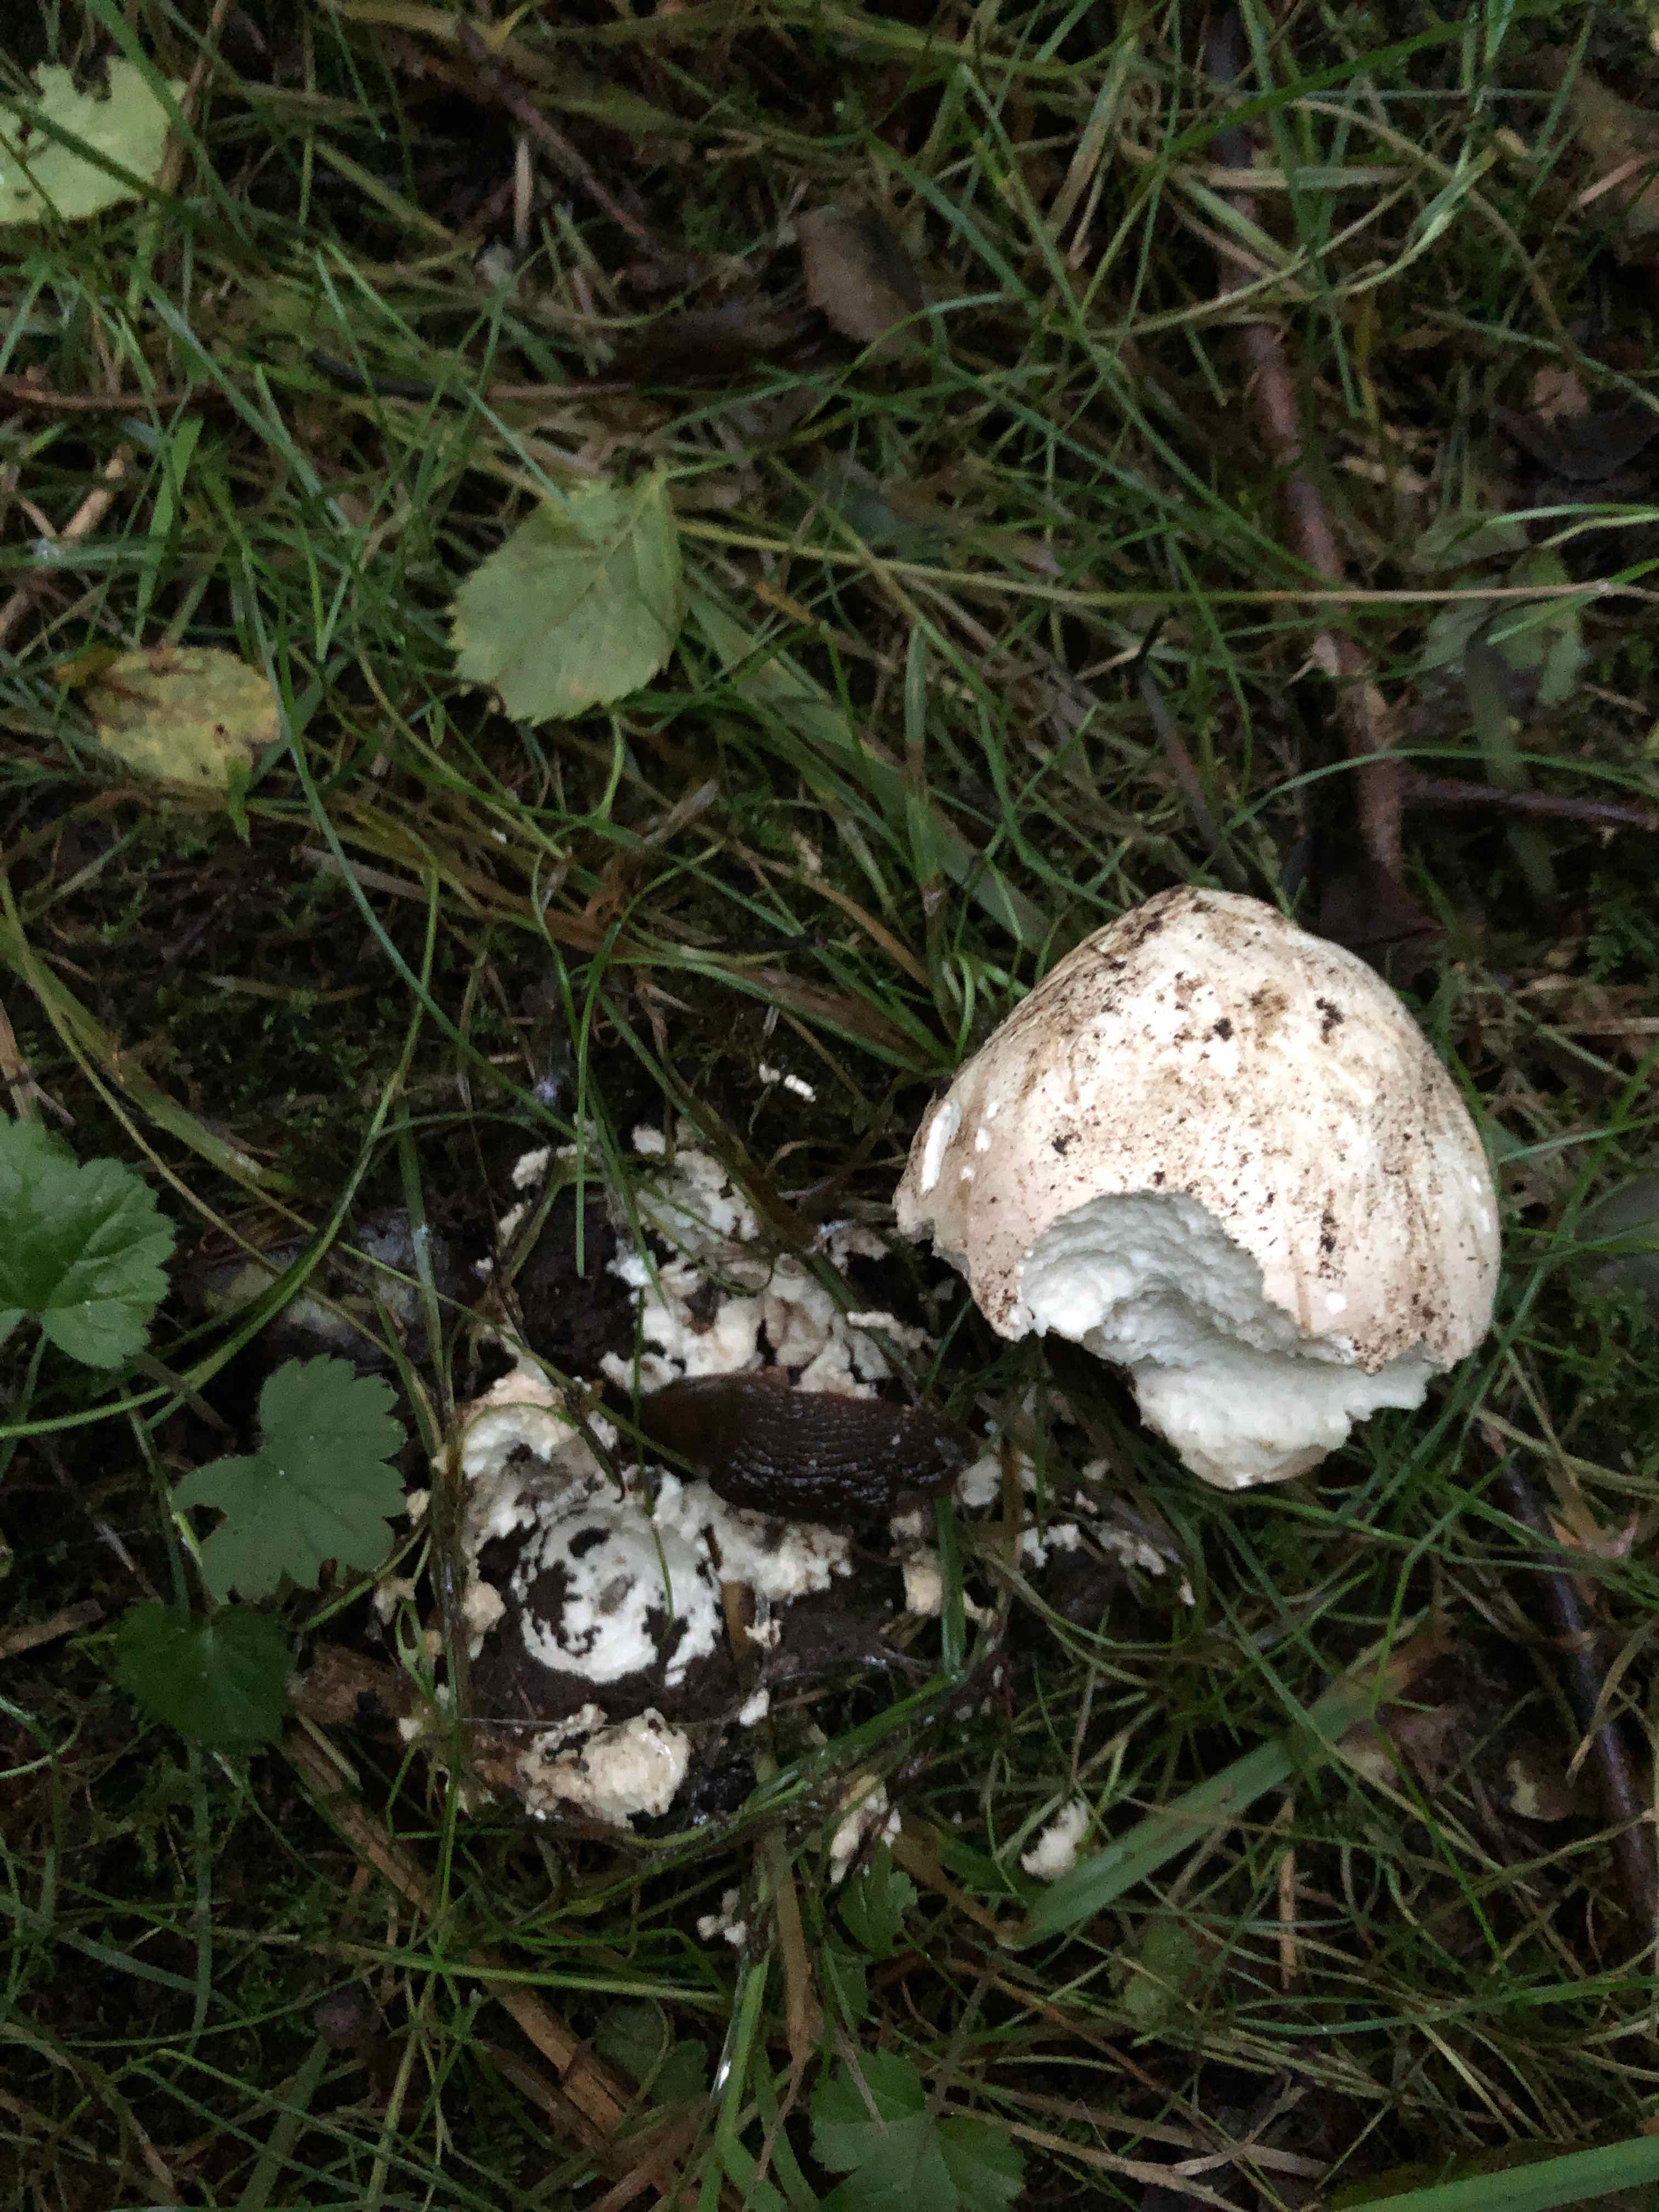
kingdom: Fungi
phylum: Basidiomycota
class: Agaricomycetes
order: Agaricales
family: Lycoperdaceae
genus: Calvatia
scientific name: Calvatia gigantea
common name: kæmpestøvbold
